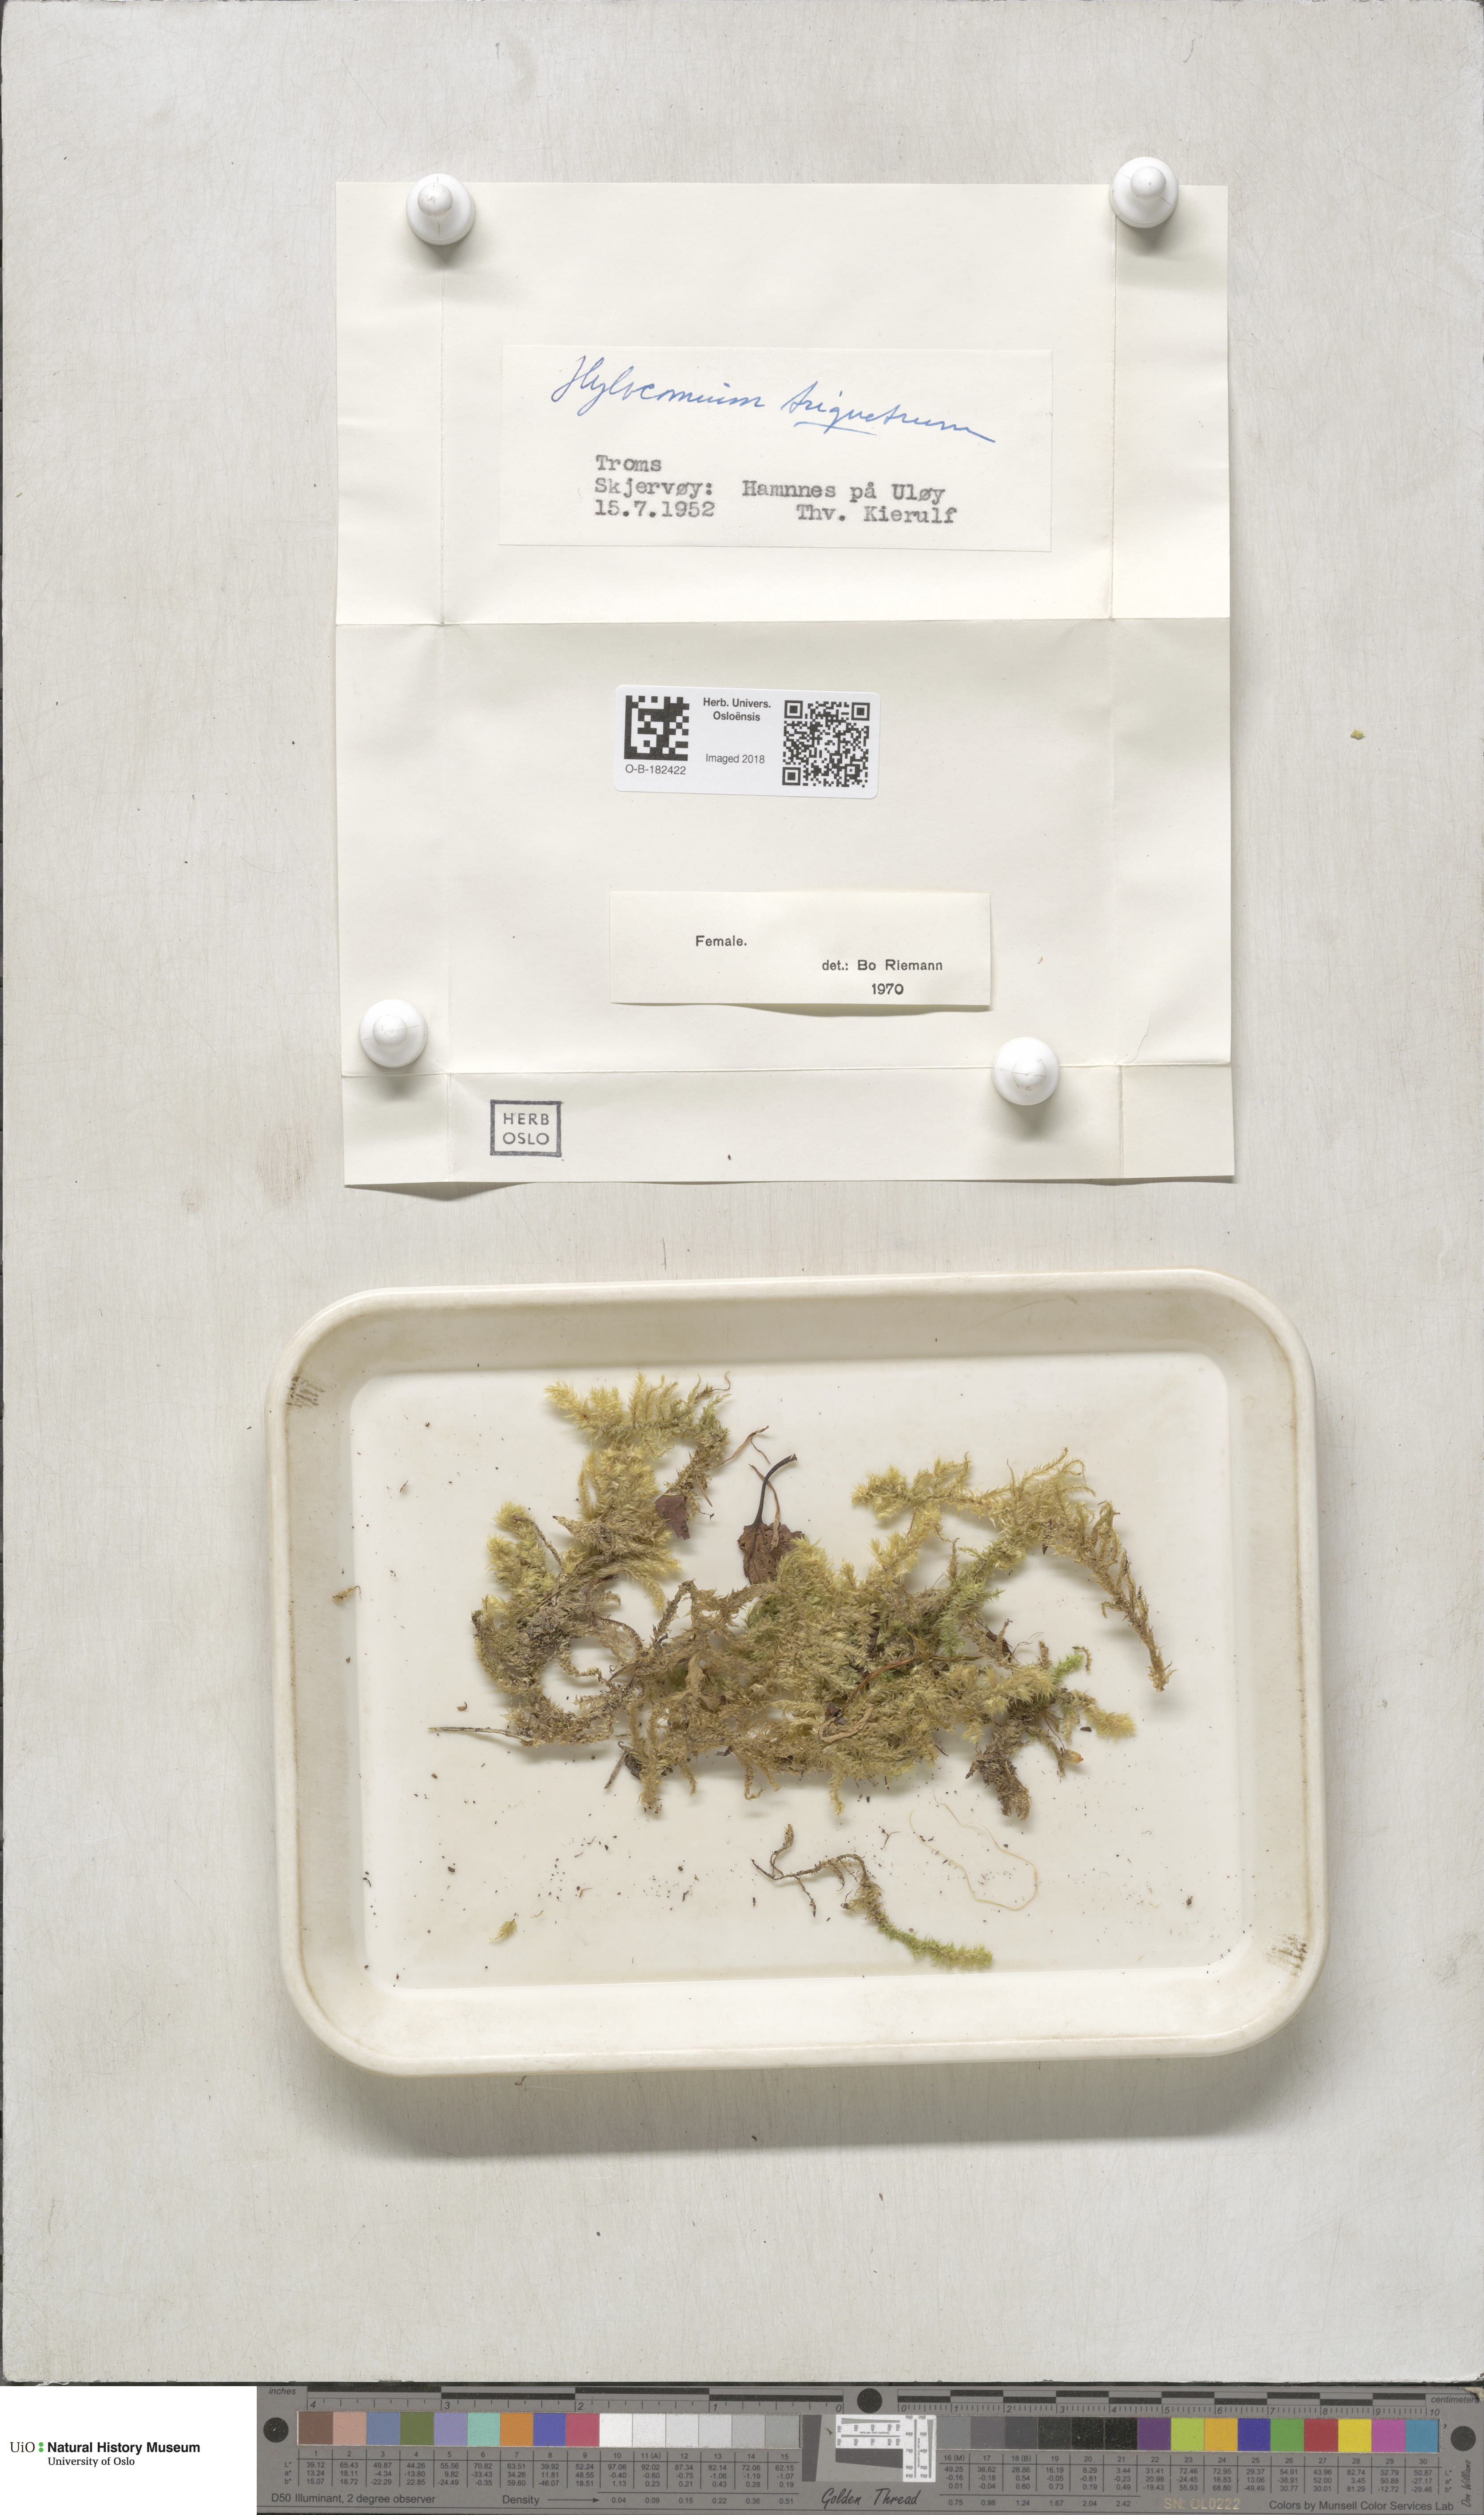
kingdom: Plantae
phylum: Bryophyta
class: Bryopsida
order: Hypnales
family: Hylocomiaceae
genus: Hylocomiadelphus
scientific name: Hylocomiadelphus triquetrus
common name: Rough goose neck moss
